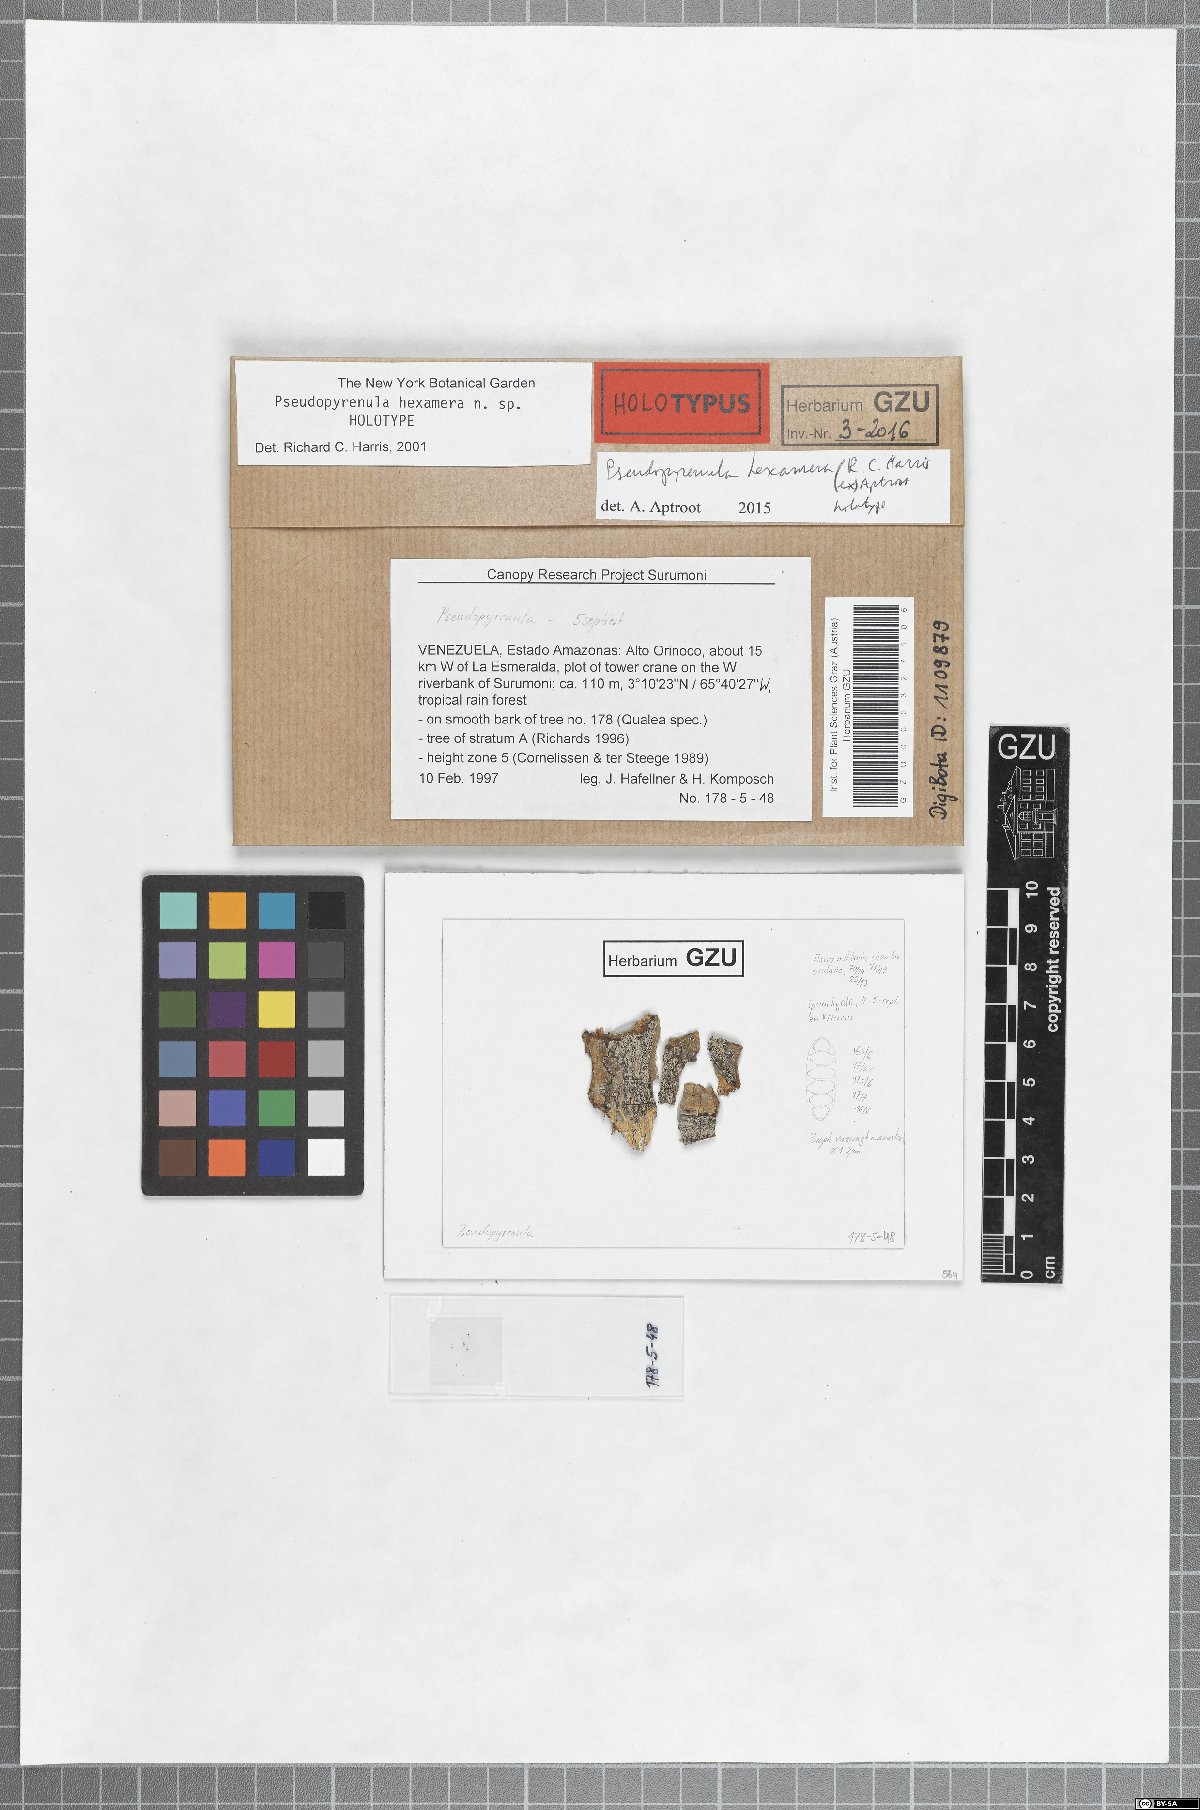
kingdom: Fungi
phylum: Ascomycota
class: Dothideomycetes
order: Trypetheliales
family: Trypetheliaceae
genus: Pseudopyrenula
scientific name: Pseudopyrenula hexamera
